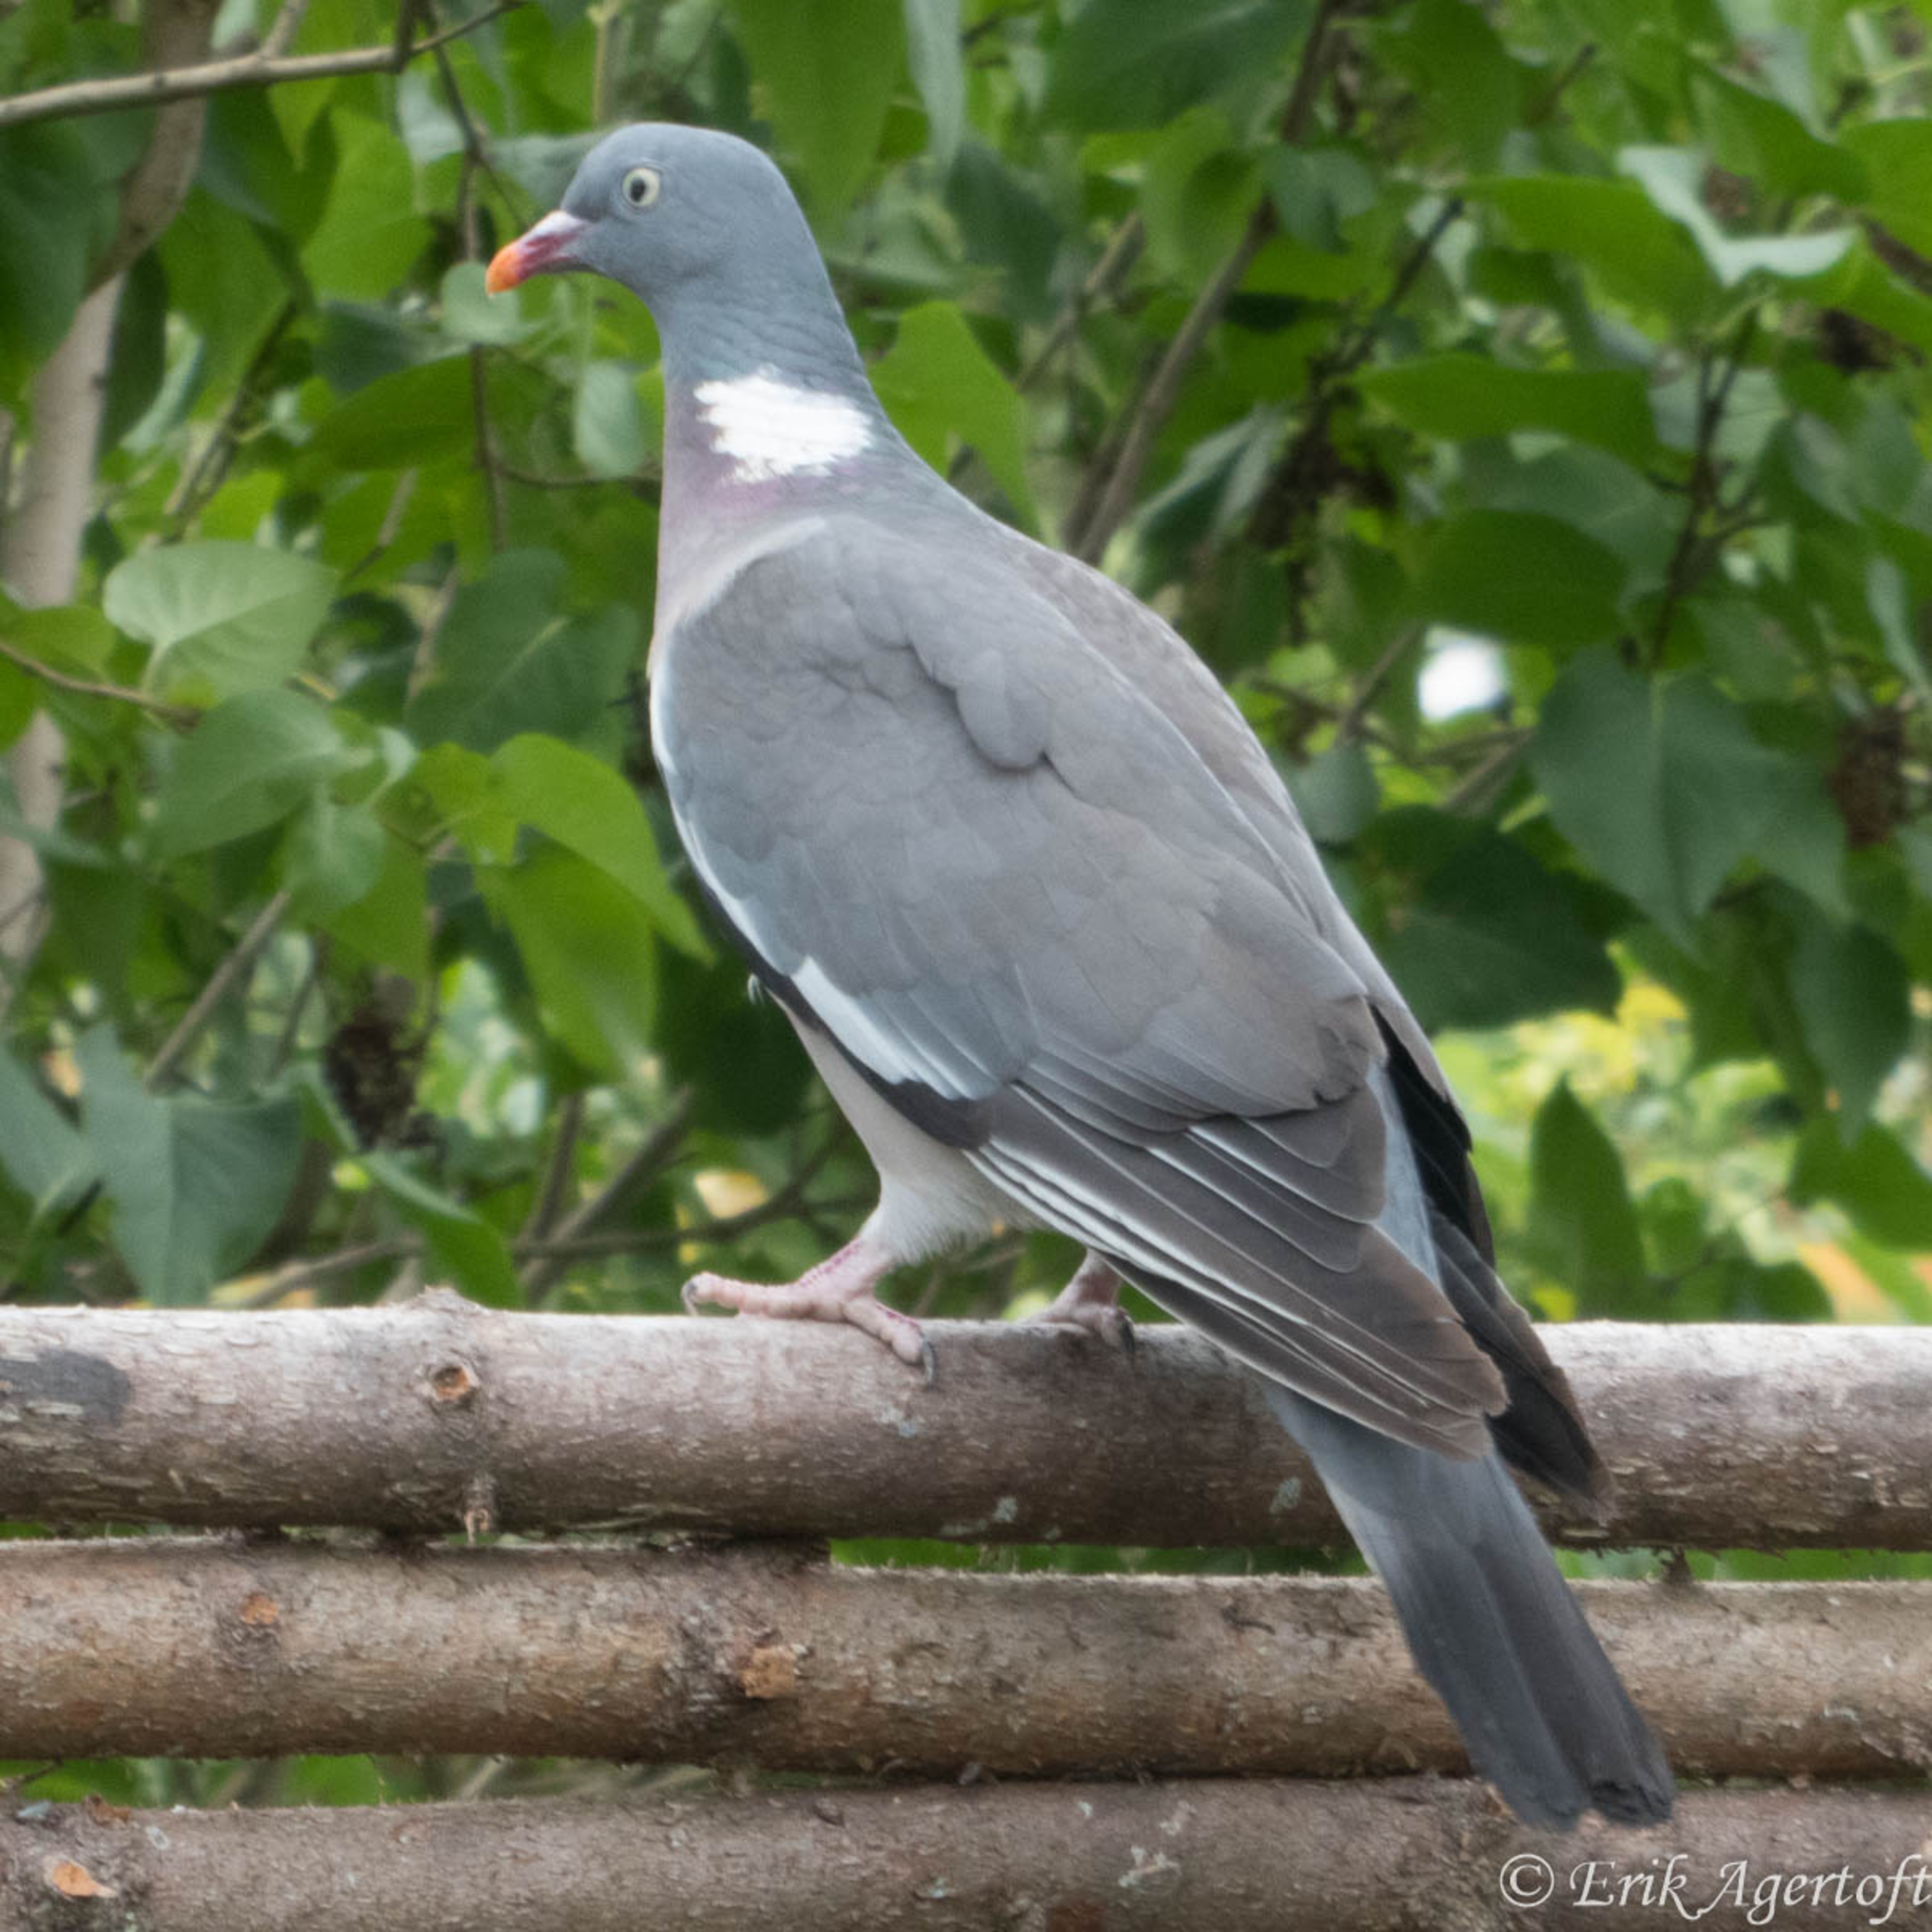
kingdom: Animalia
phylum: Chordata
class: Aves
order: Columbiformes
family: Columbidae
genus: Columba
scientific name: Columba palumbus
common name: Ringdue
